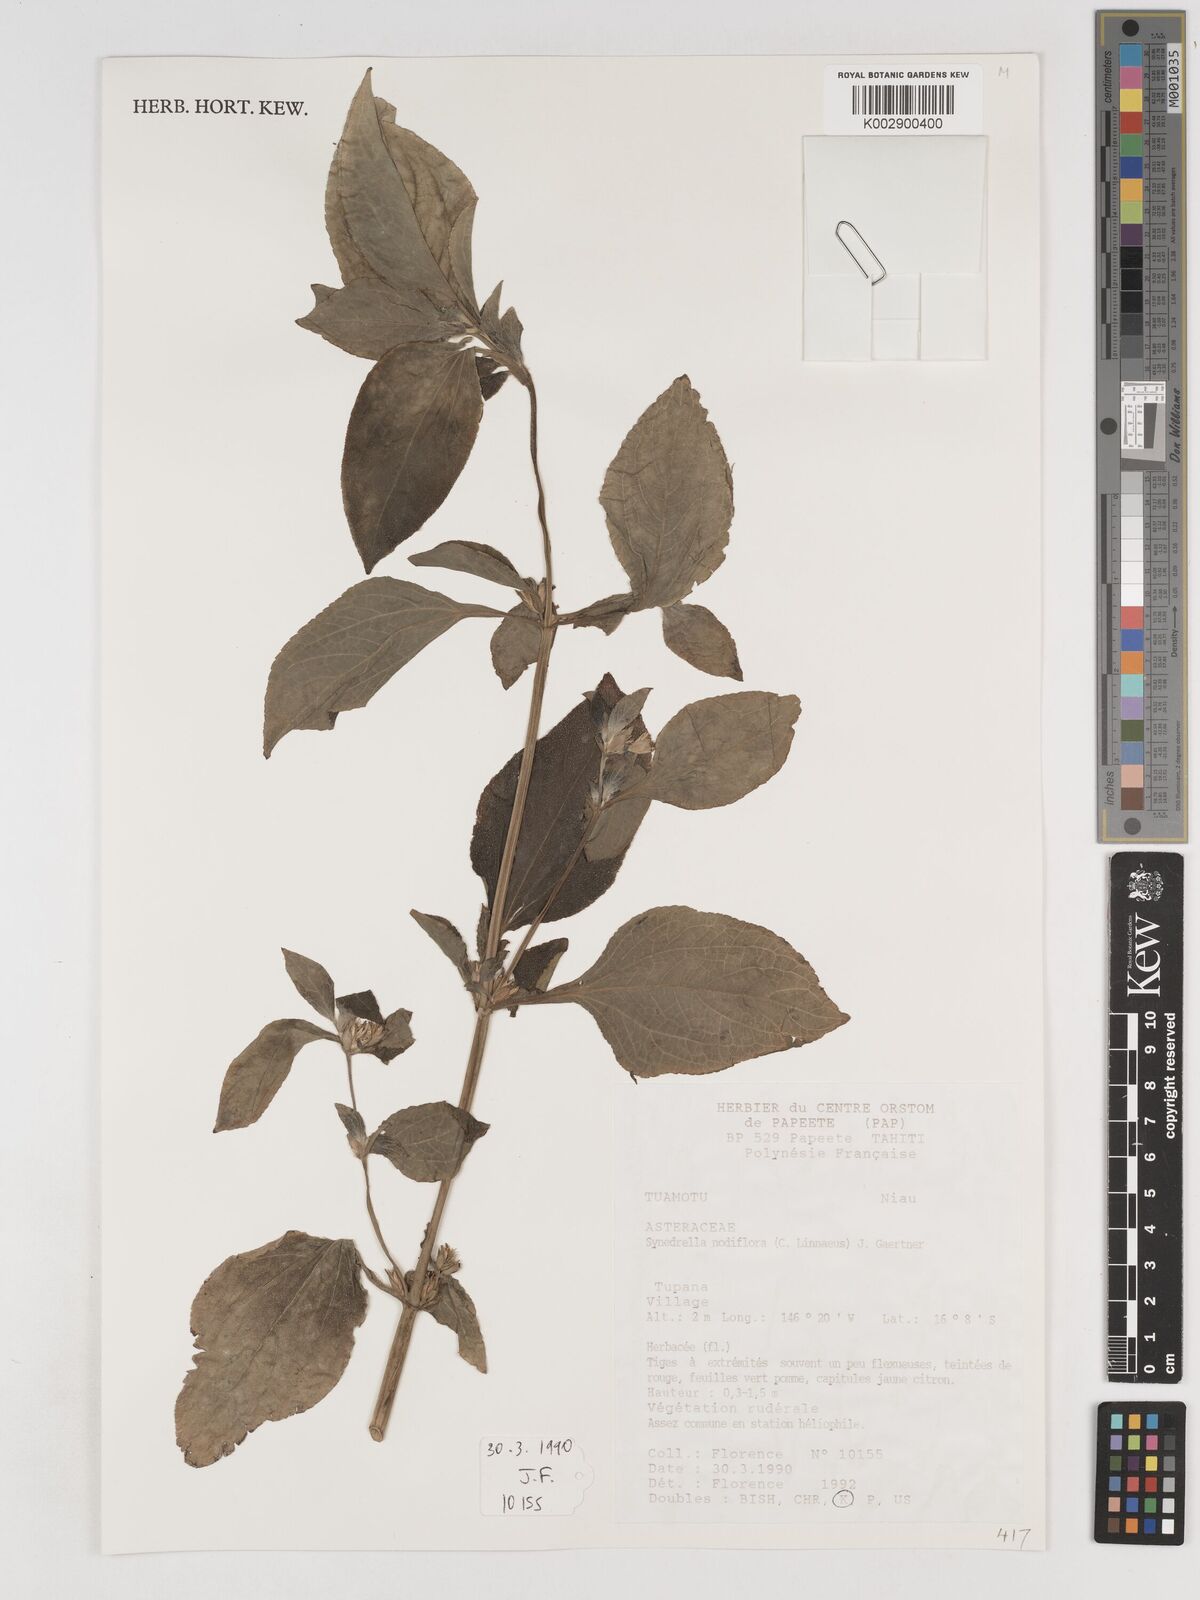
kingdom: Plantae
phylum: Tracheophyta
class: Magnoliopsida
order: Asterales
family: Asteraceae
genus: Synedrella
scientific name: Synedrella nodiflora
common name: Nodeweed
